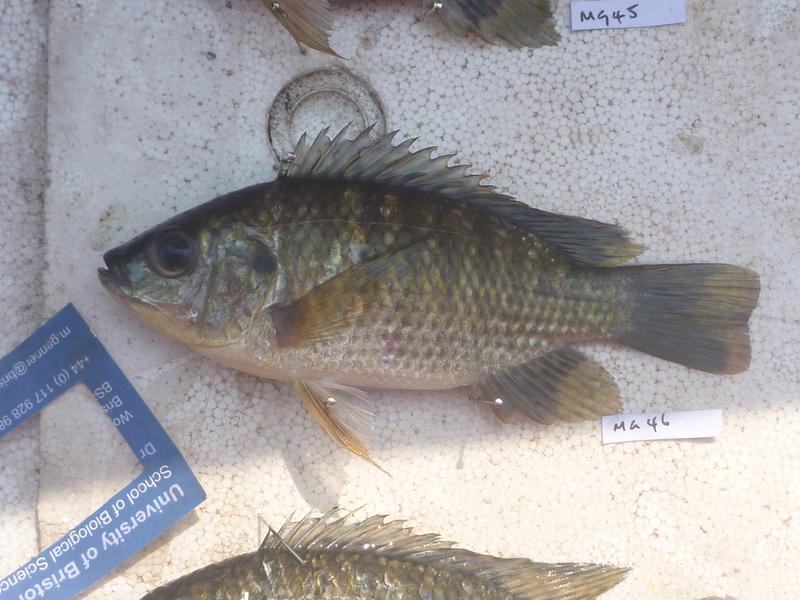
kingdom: Animalia
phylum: Chordata
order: Perciformes
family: Cichlidae
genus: Oreochromis
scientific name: Oreochromis leucostictus
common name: Blue spotted tilapia
